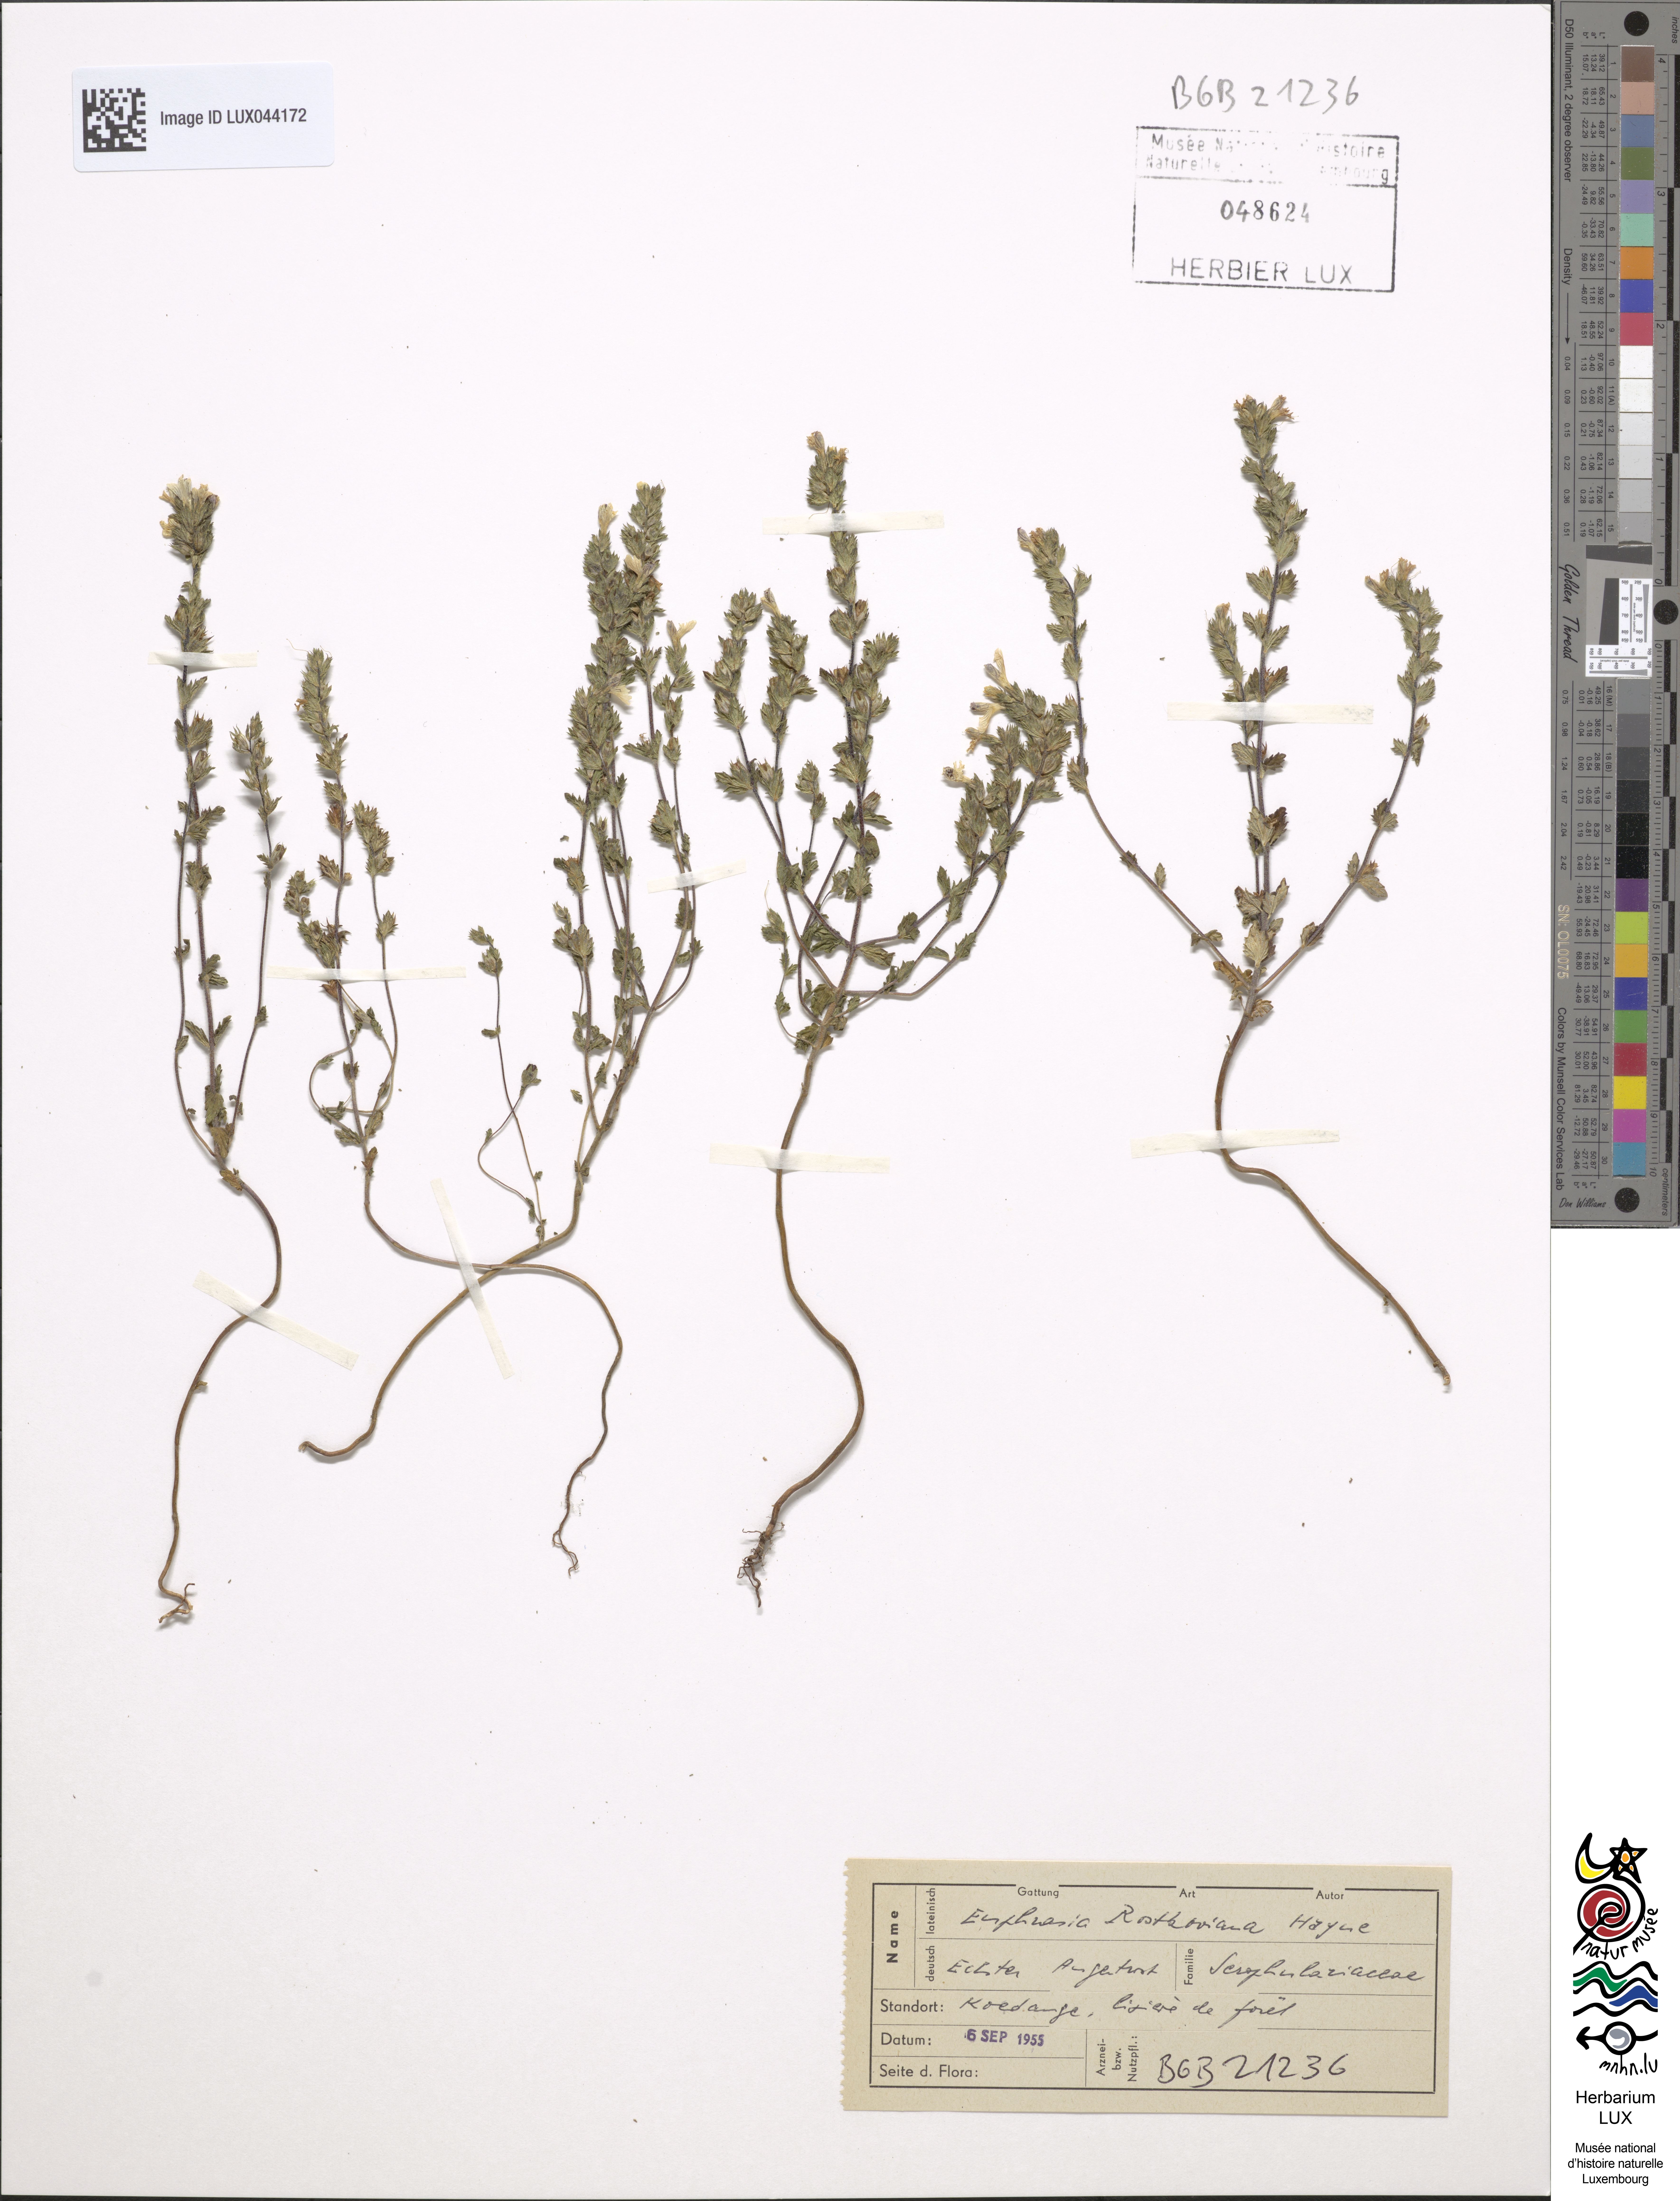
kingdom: Plantae
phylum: Tracheophyta
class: Magnoliopsida
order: Lamiales
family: Orobanchaceae
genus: Euphrasia
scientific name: Euphrasia officinalis
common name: Eyebright
